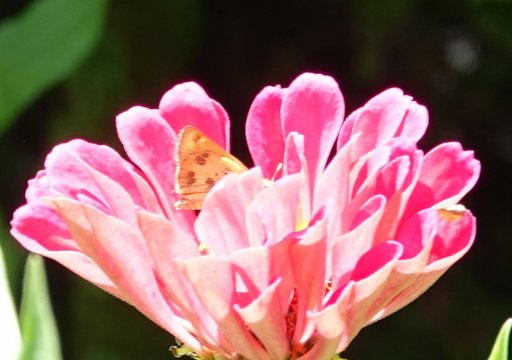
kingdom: Animalia
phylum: Arthropoda
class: Insecta
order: Lepidoptera
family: Hesperiidae
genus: Polites
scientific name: Polites vibex
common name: Whirlabout
